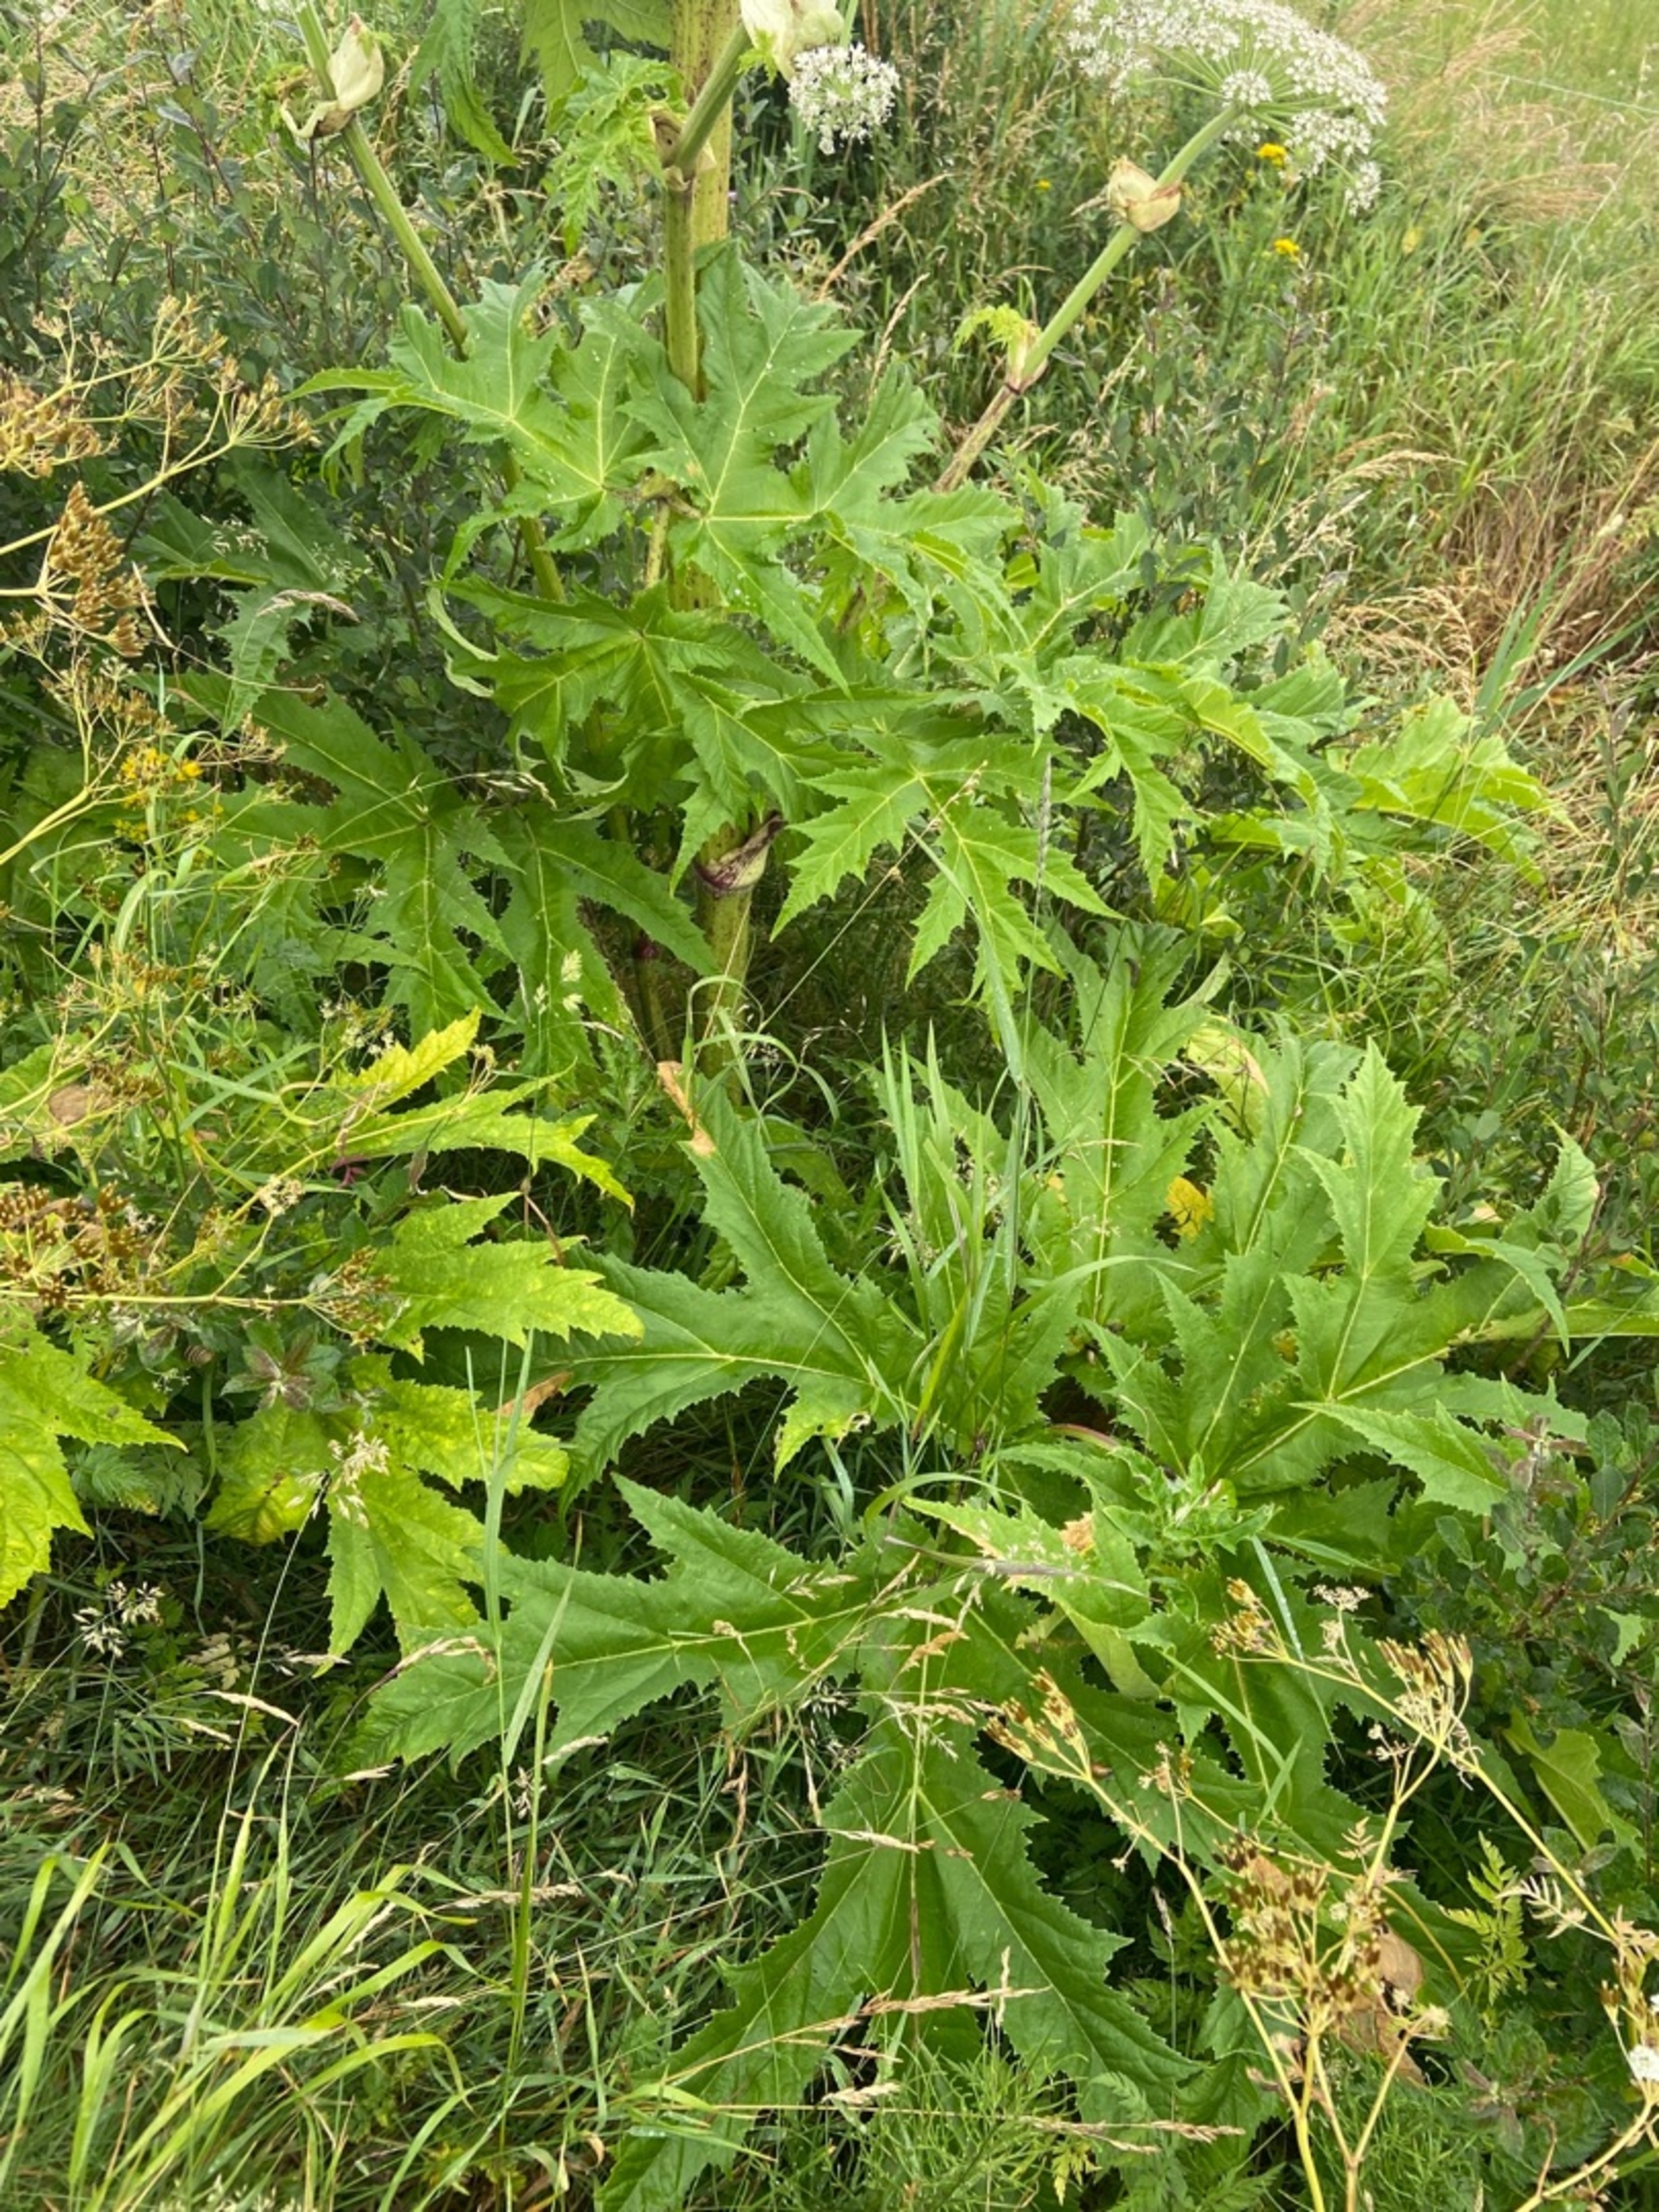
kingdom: Plantae
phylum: Tracheophyta
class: Magnoliopsida
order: Apiales
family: Apiaceae
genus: Heracleum
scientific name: Heracleum mantegazzianum
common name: Kæmpe-bjørneklo
